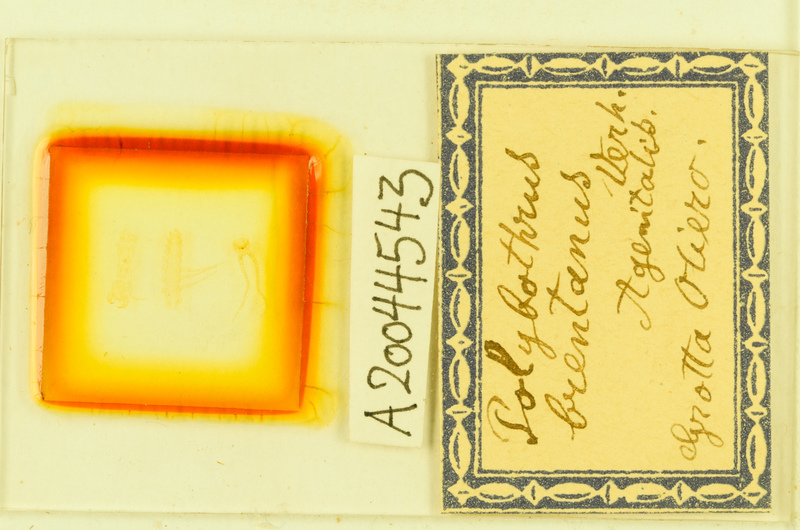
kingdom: Animalia
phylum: Arthropoda
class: Chilopoda
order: Lithobiomorpha
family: Lithobiidae
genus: Eupolybothrus
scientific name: Eupolybothrus tridentinus
